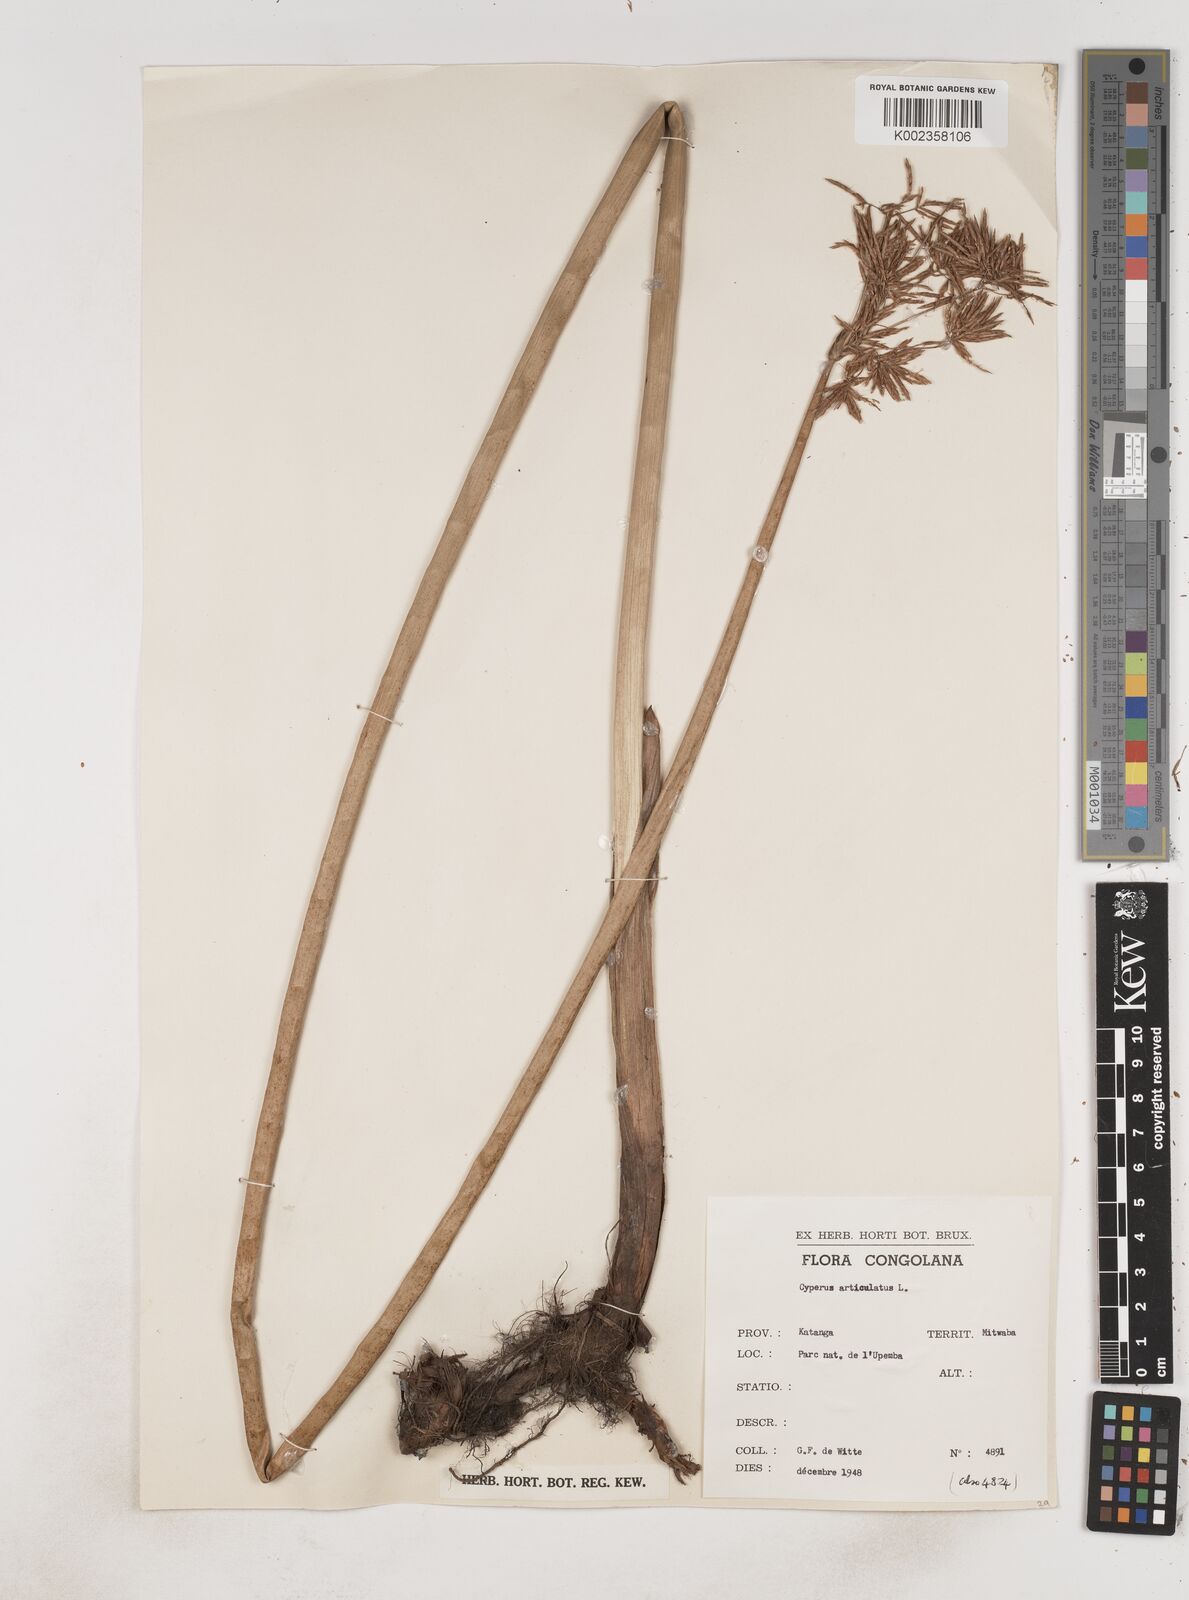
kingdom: Plantae
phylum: Tracheophyta
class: Liliopsida
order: Poales
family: Cyperaceae
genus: Cyperus
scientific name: Cyperus articulatus
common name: Jointed flatsedge
